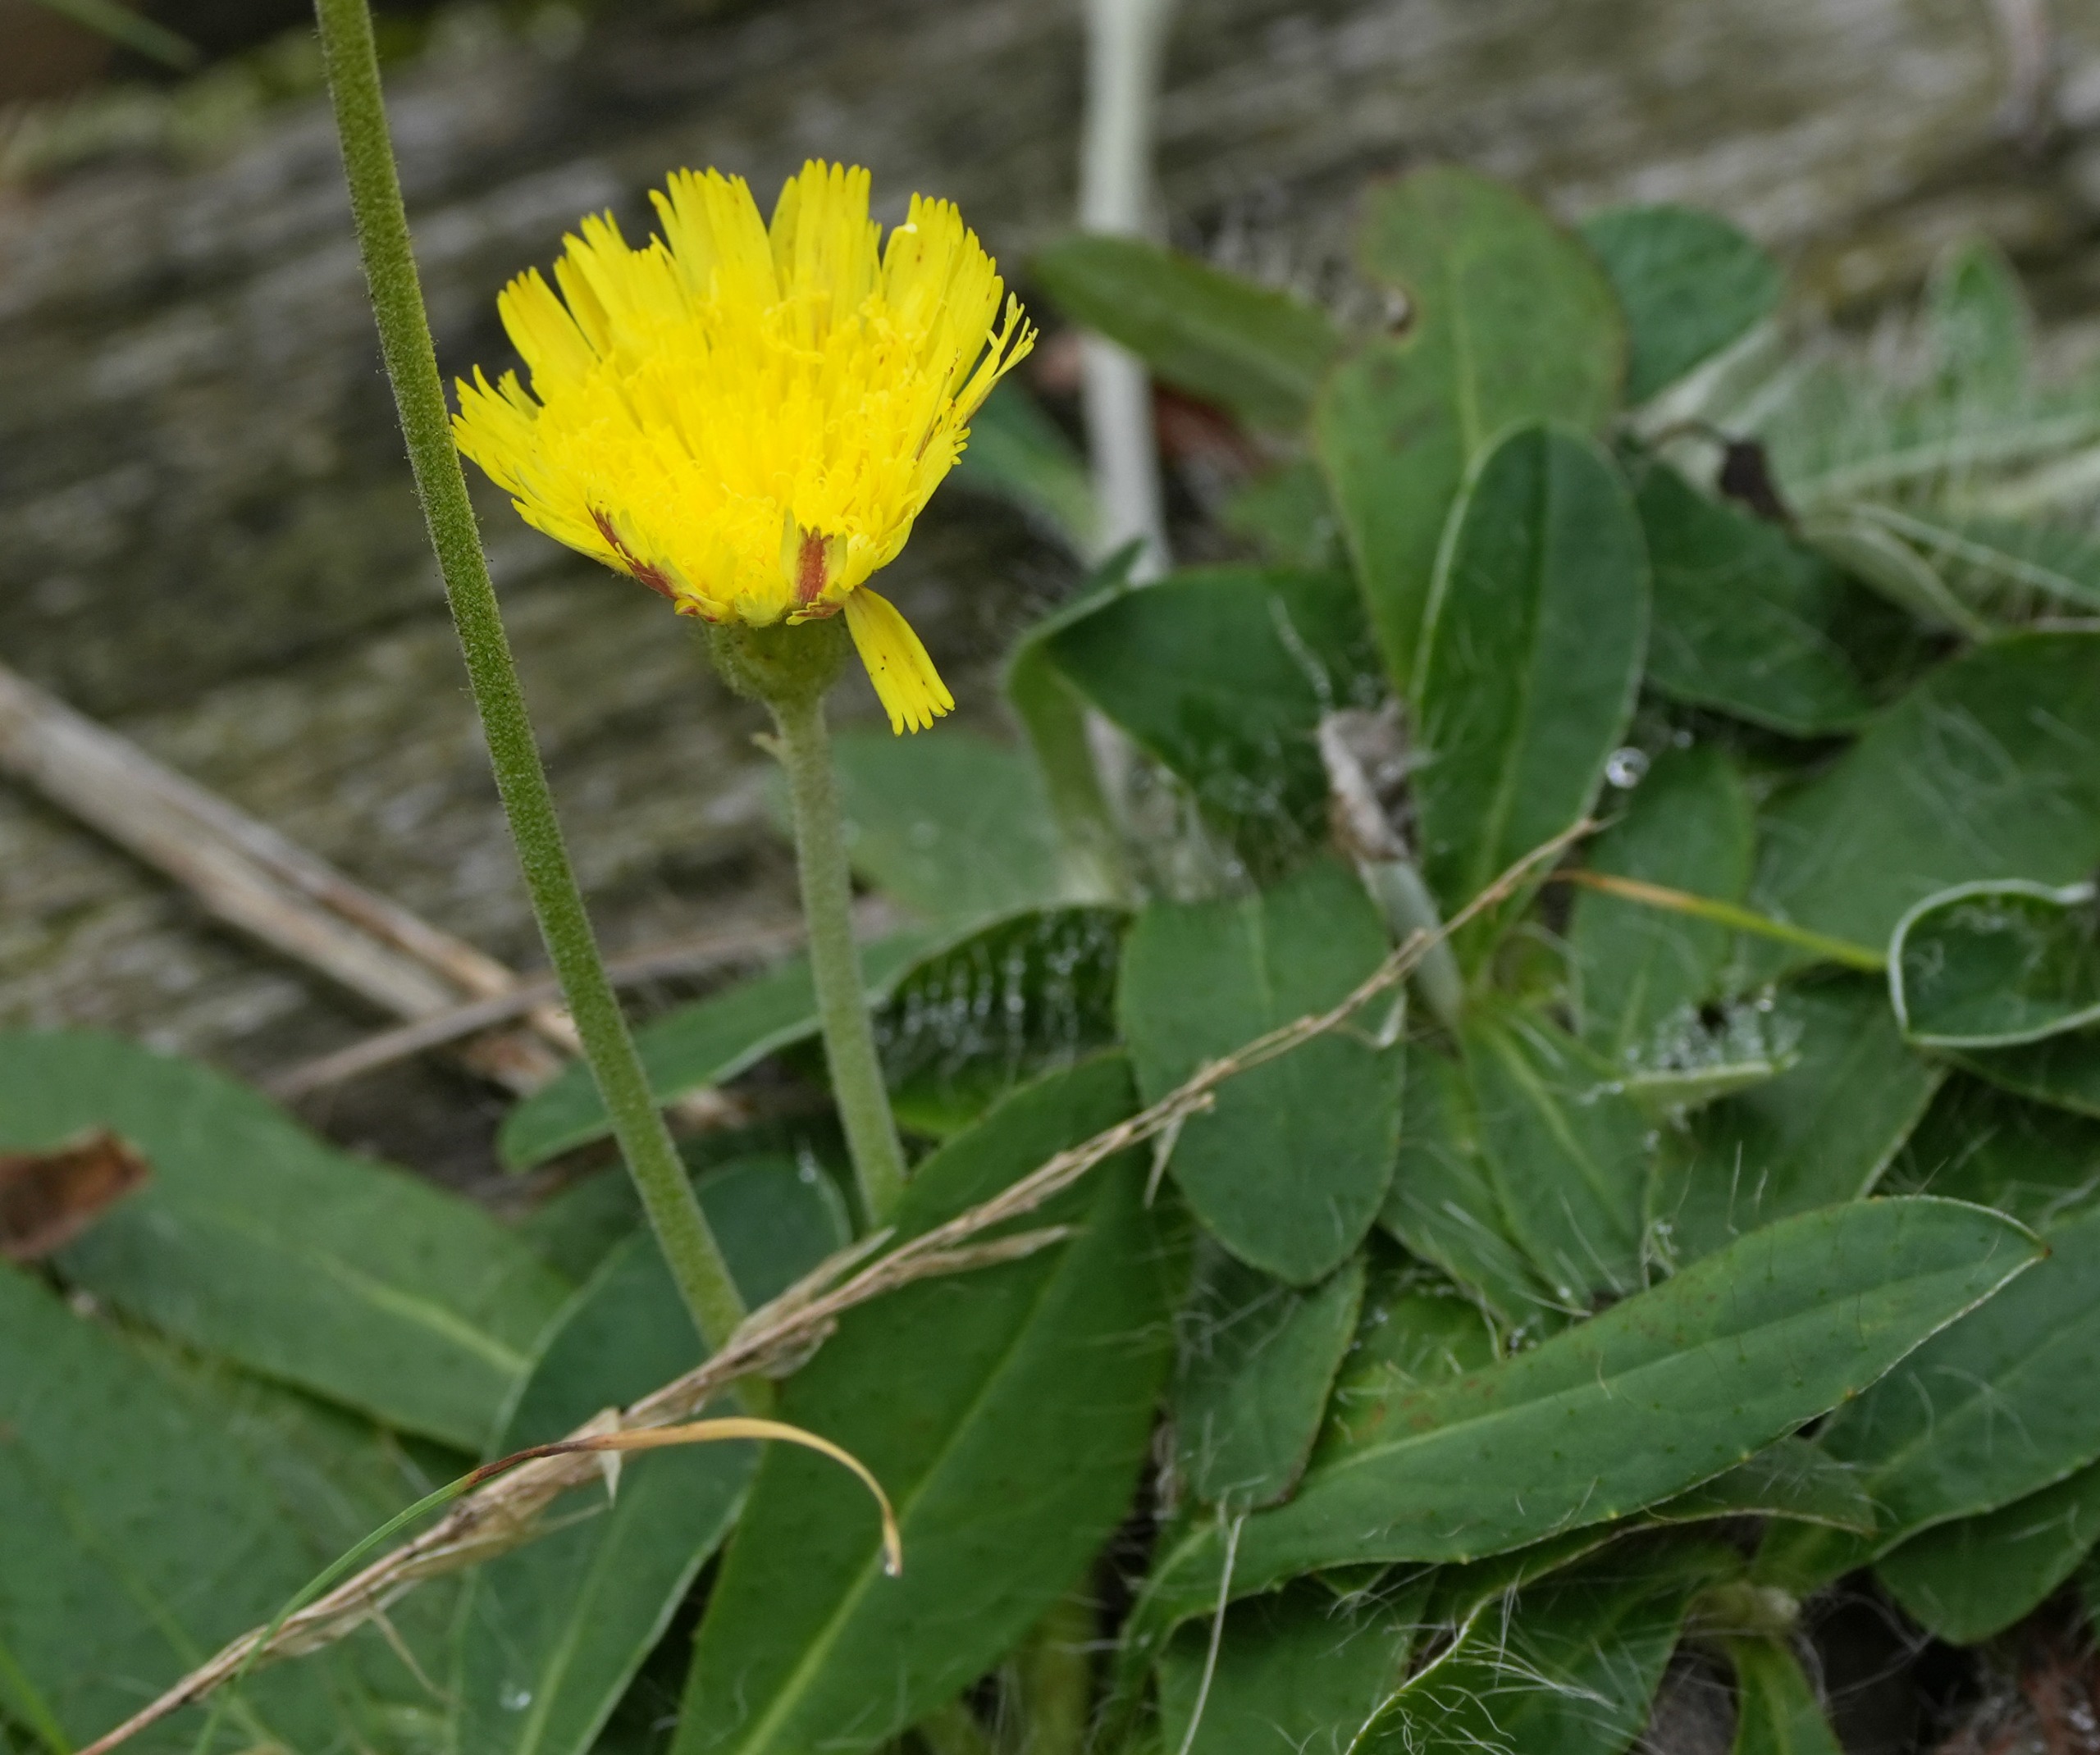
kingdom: Plantae
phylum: Tracheophyta
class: Magnoliopsida
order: Asterales
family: Asteraceae
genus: Pilosella
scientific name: Pilosella officinarum
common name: Håret høgeurt
